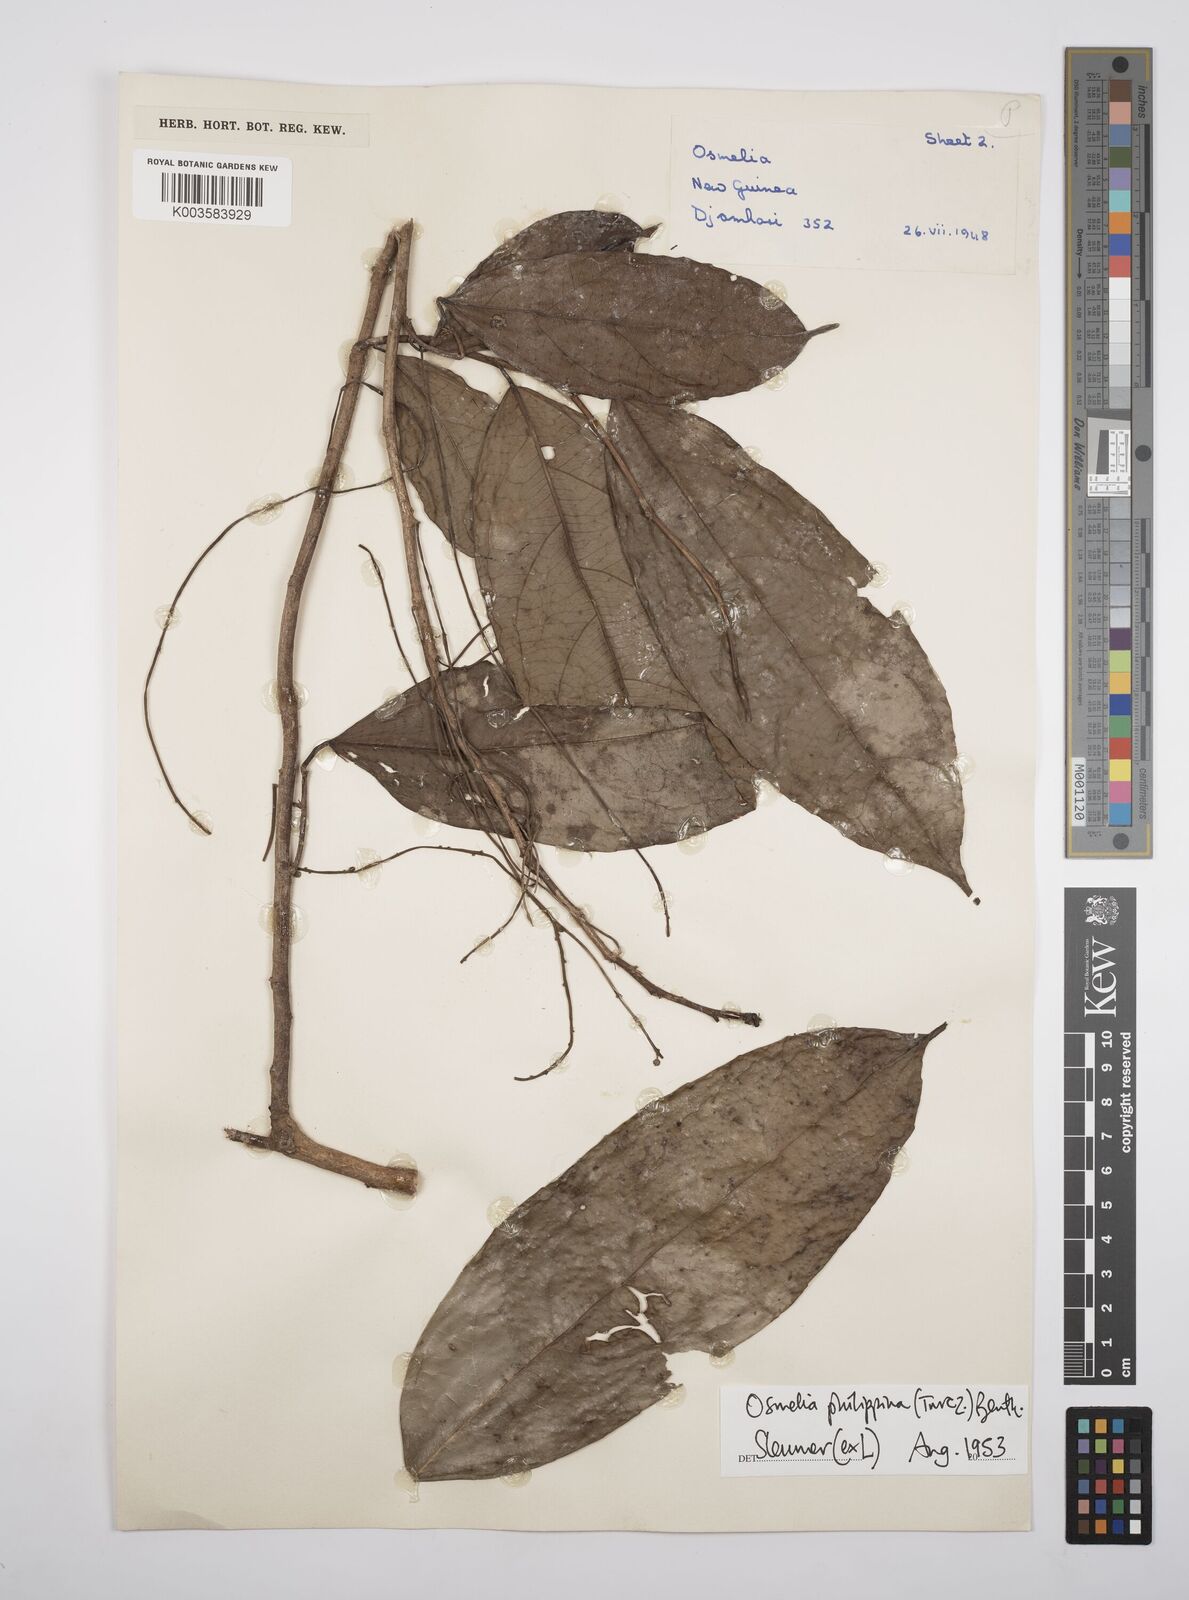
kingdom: Plantae
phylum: Tracheophyta
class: Magnoliopsida
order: Malpighiales
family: Salicaceae
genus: Osmelia
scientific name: Osmelia philippina
